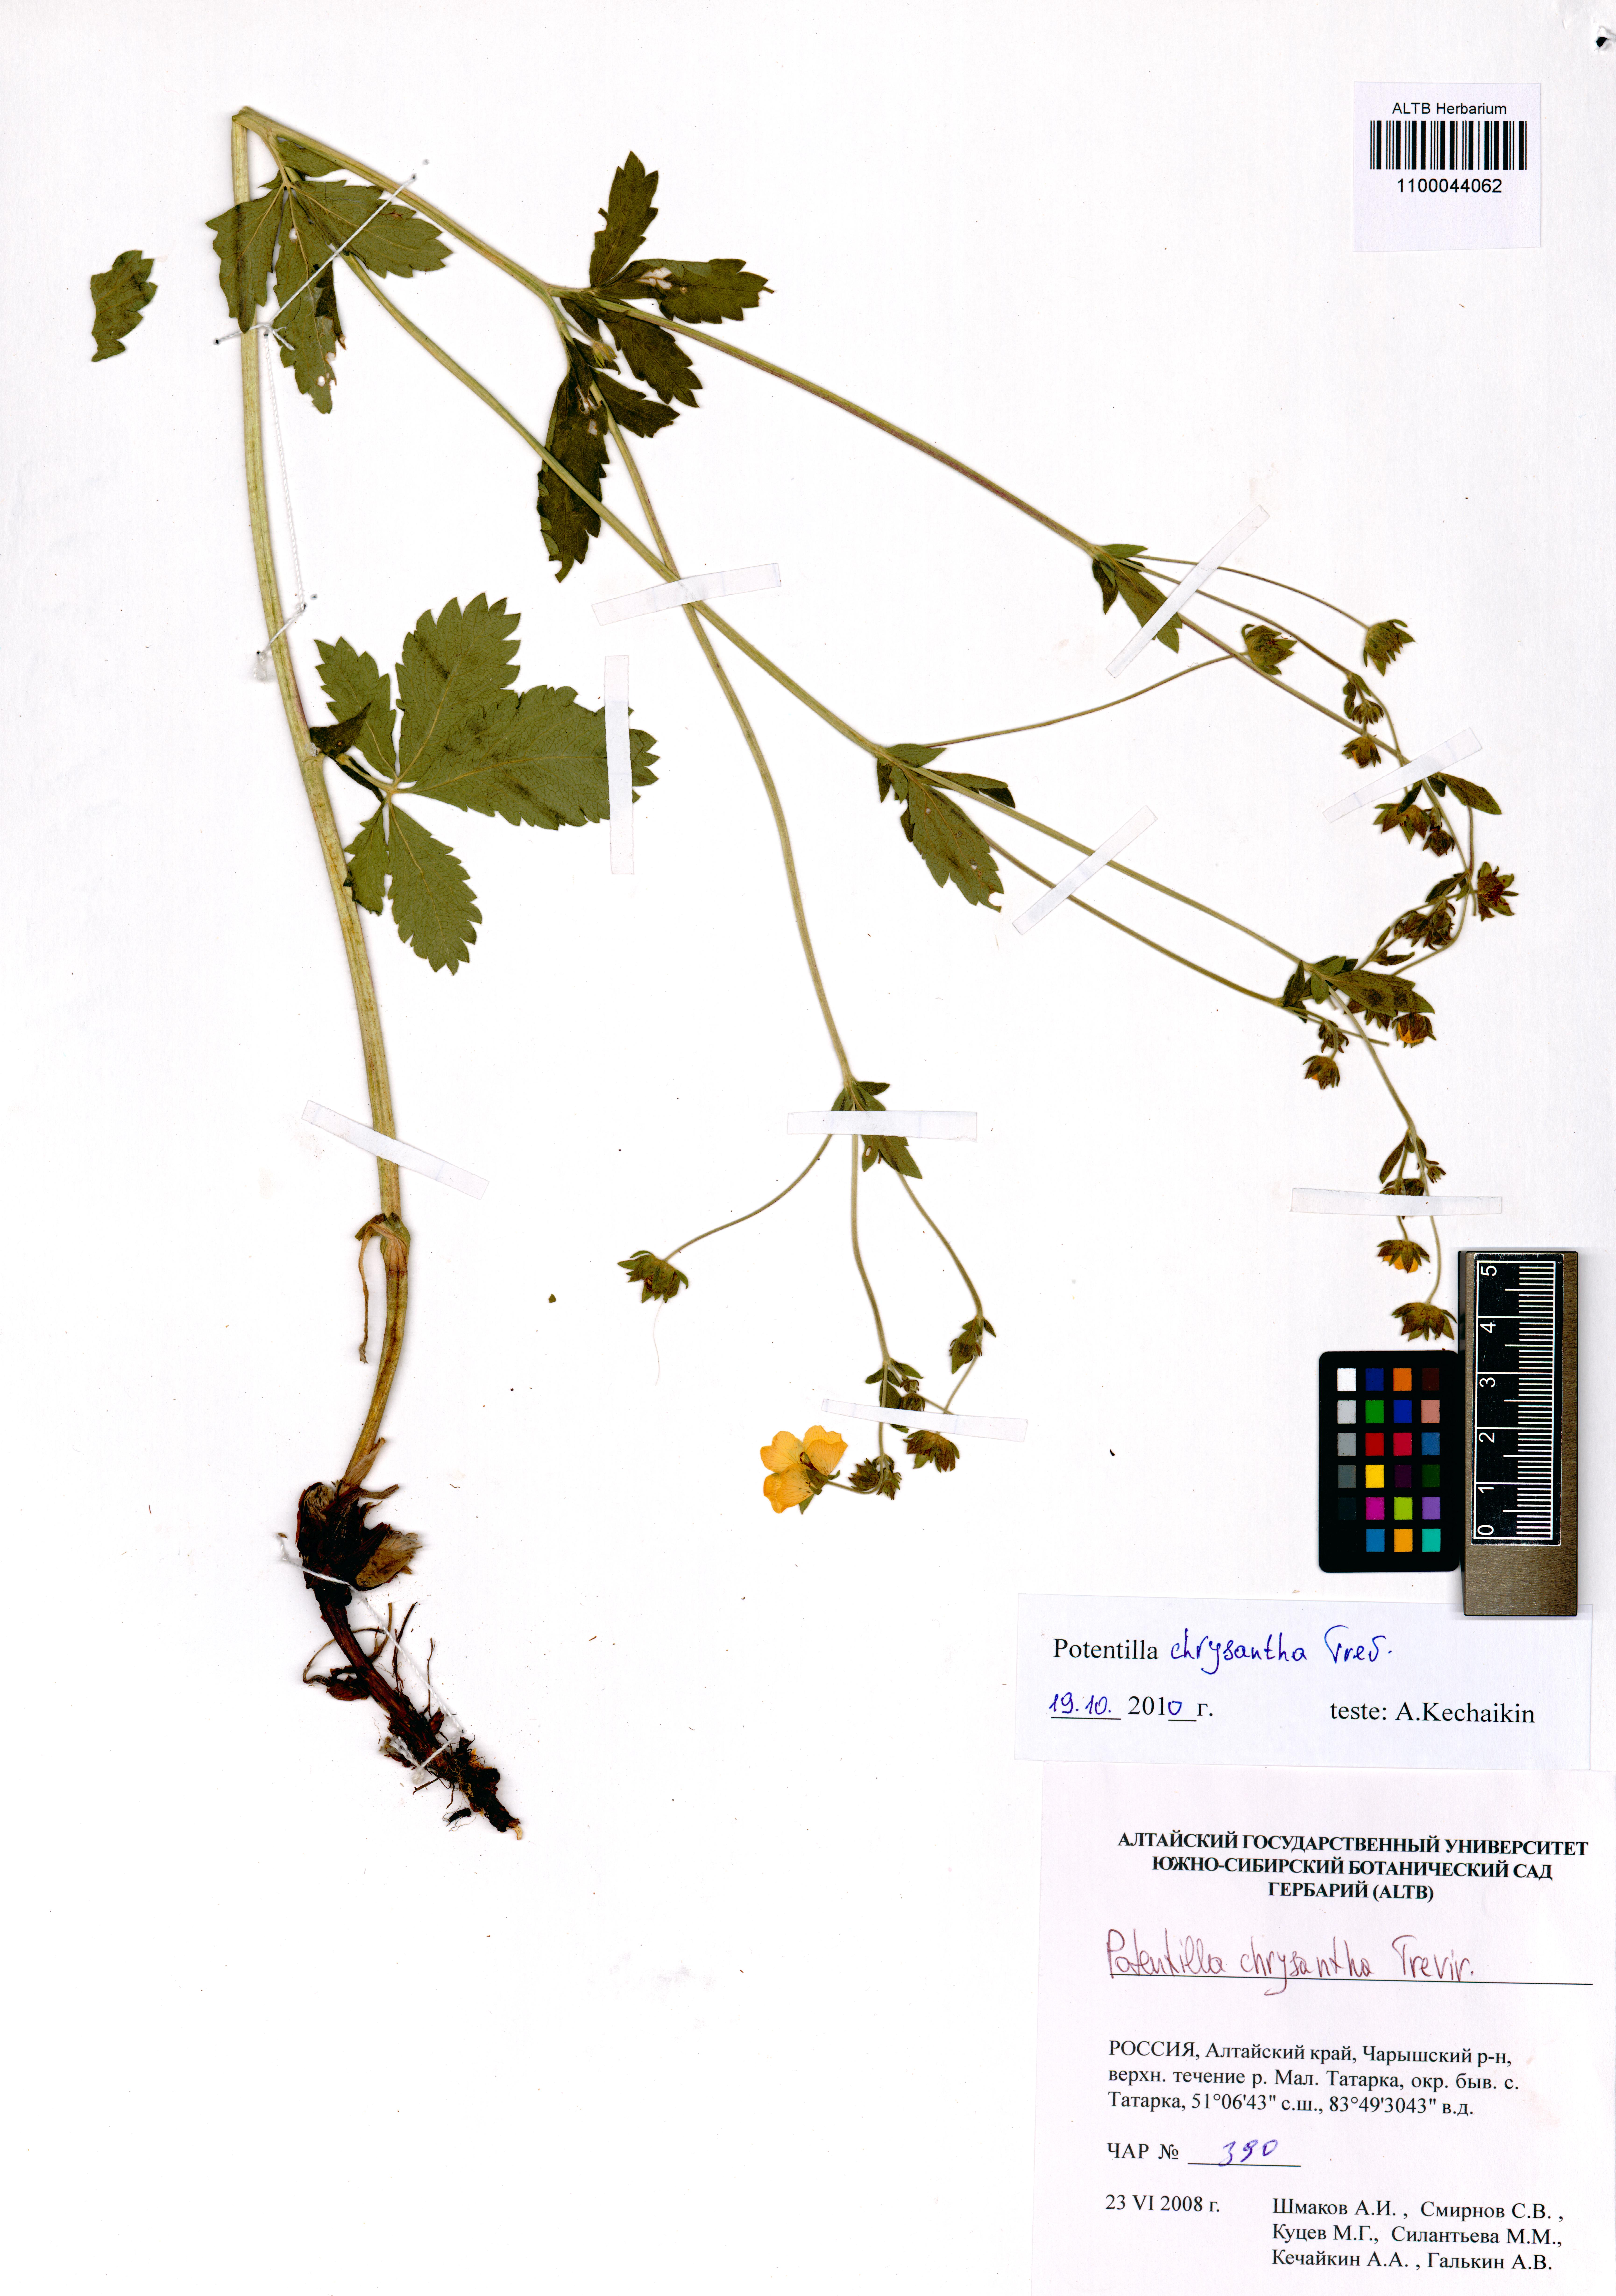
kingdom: Plantae
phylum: Tracheophyta
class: Magnoliopsida
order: Rosales
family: Rosaceae
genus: Potentilla
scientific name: Potentilla chrysantha
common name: Thuringian cinquefoil
